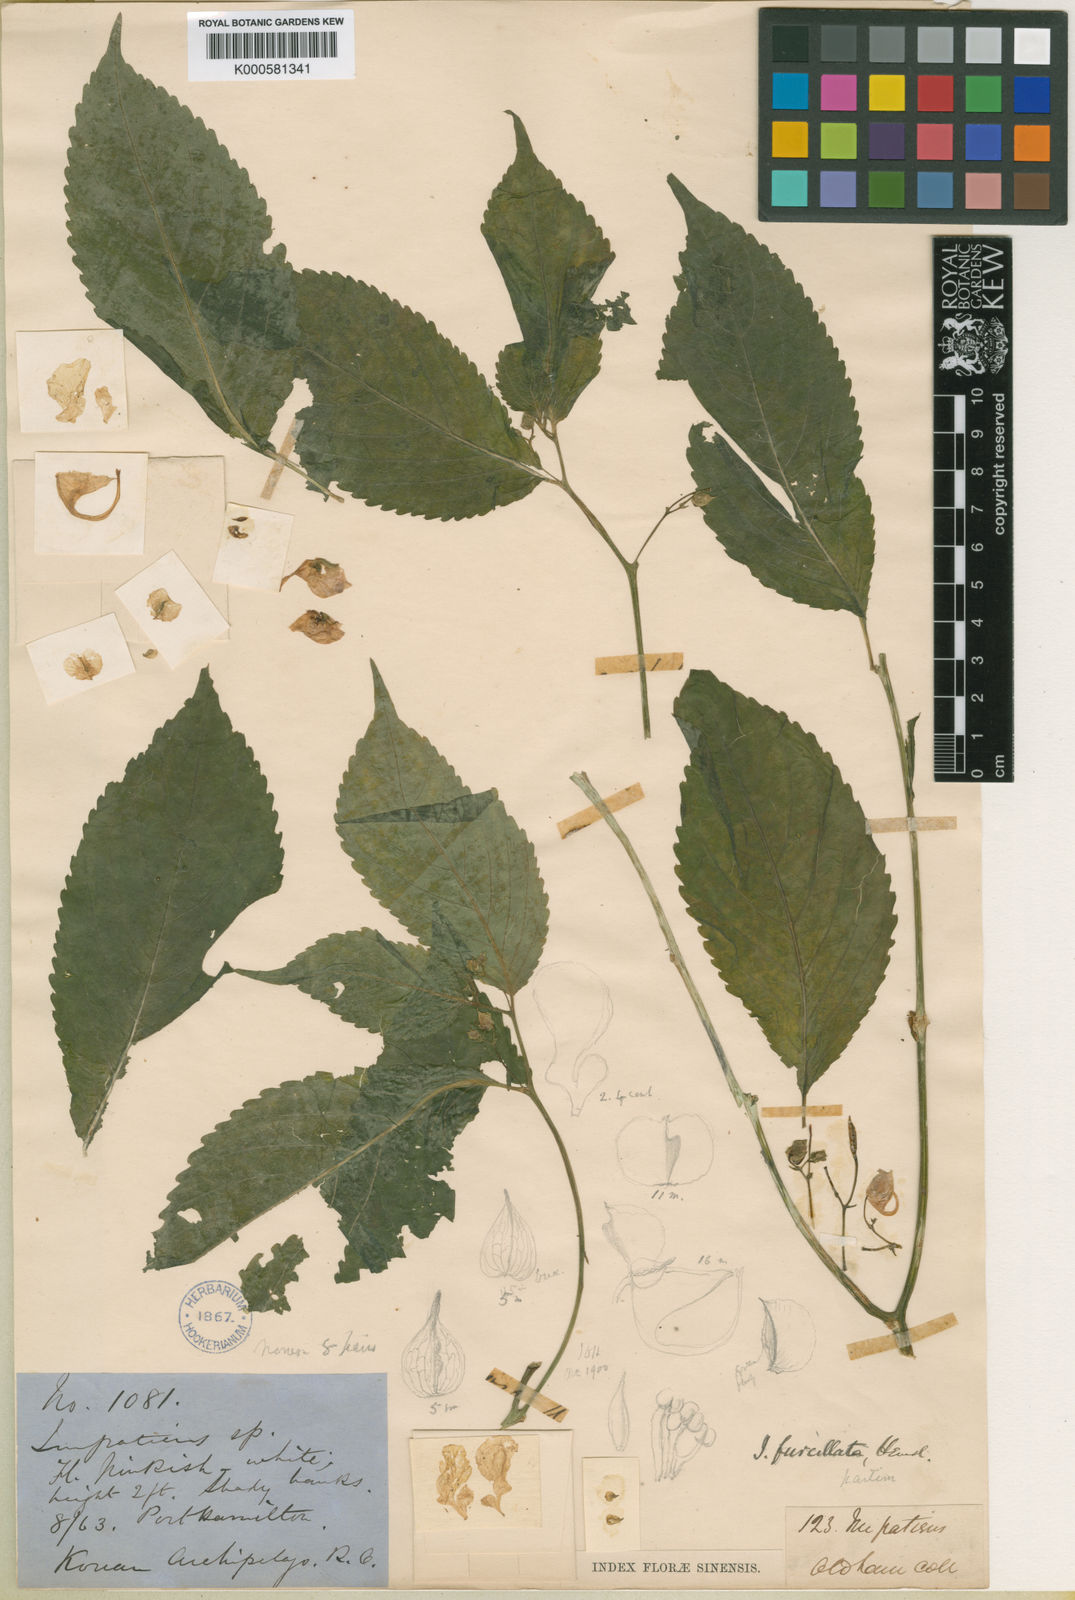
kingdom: Plantae
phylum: Tracheophyta
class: Magnoliopsida
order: Ericales
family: Balsaminaceae
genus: Impatiens
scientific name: Impatiens furcillata
